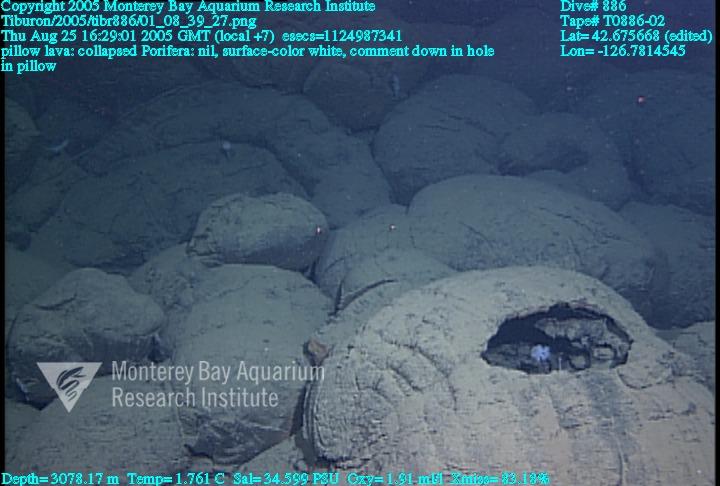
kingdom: Animalia
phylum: Porifera
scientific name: Porifera
